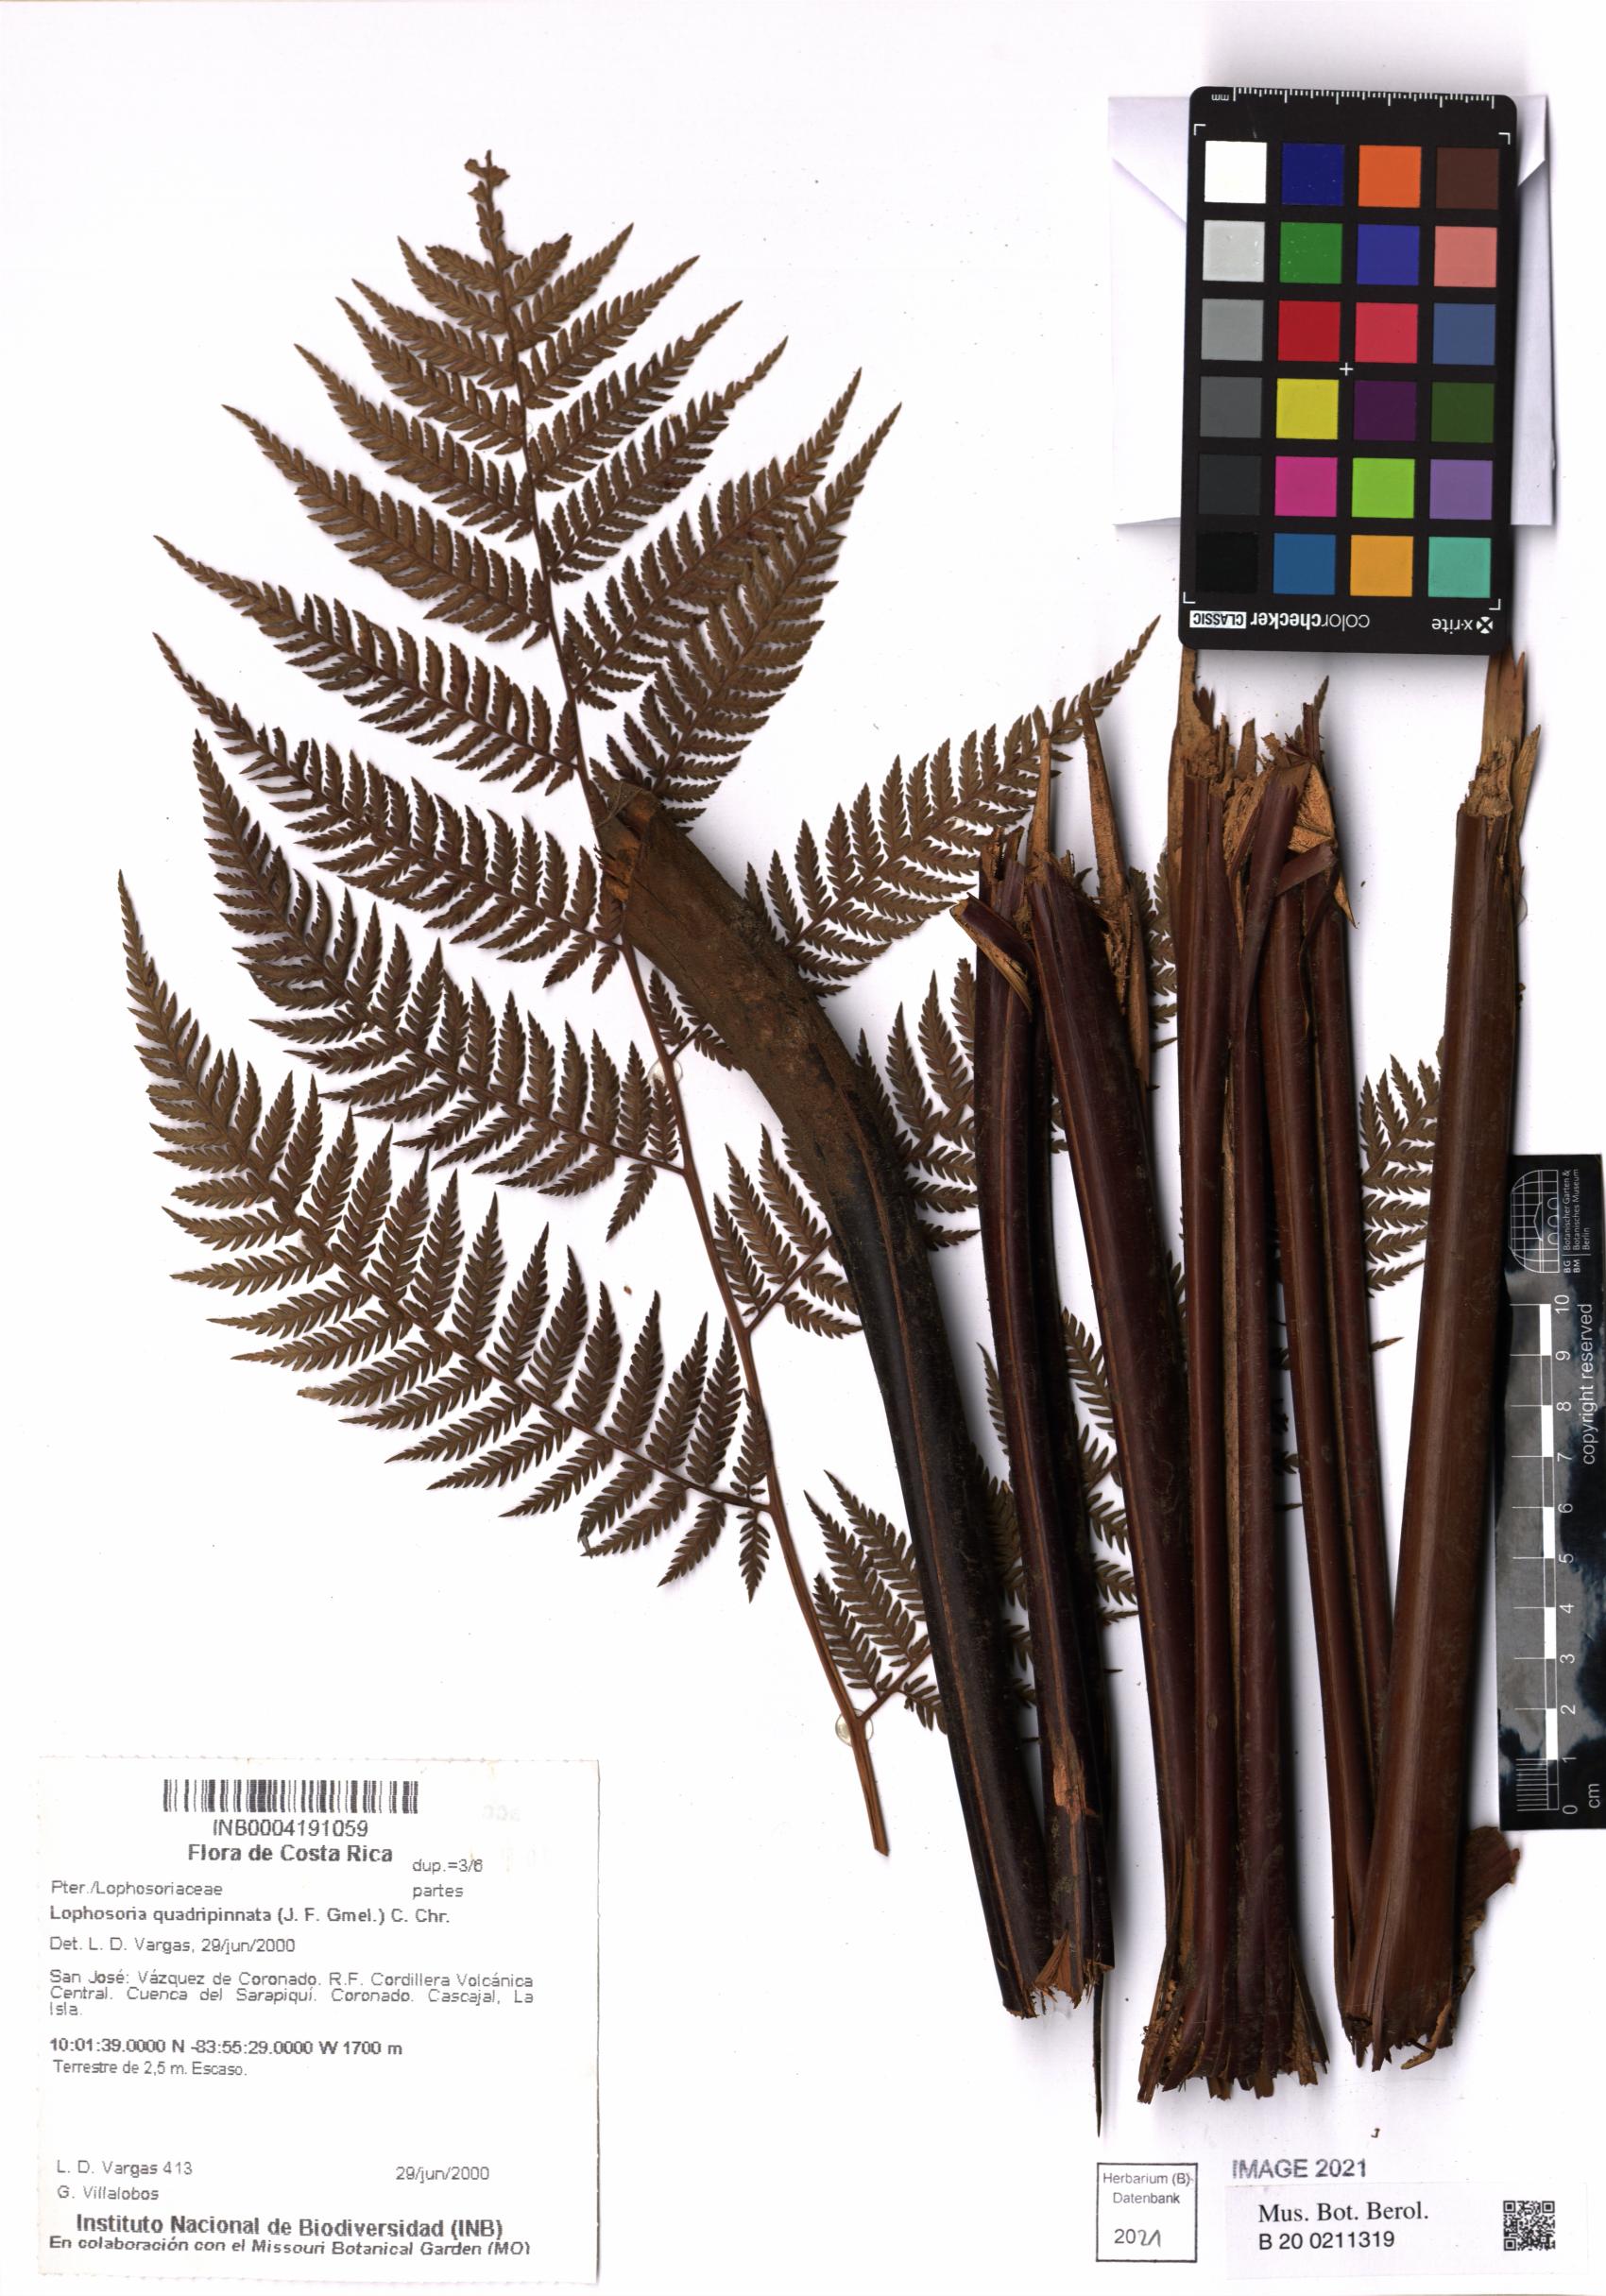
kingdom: Plantae
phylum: Tracheophyta
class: Polypodiopsida
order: Cyatheales
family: Dicksoniaceae
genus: Lophosoria
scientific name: Lophosoria quadripinnata
